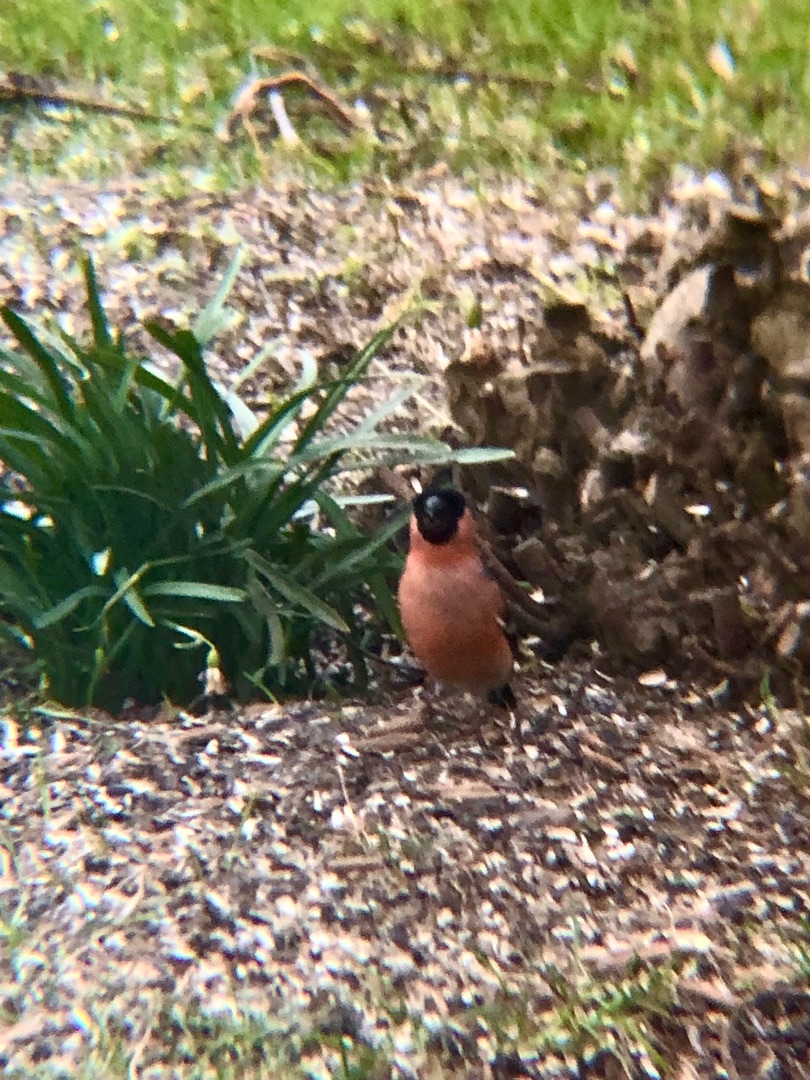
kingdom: Animalia
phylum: Chordata
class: Aves
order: Passeriformes
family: Fringillidae
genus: Pyrrhula
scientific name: Pyrrhula pyrrhula
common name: Dompap
